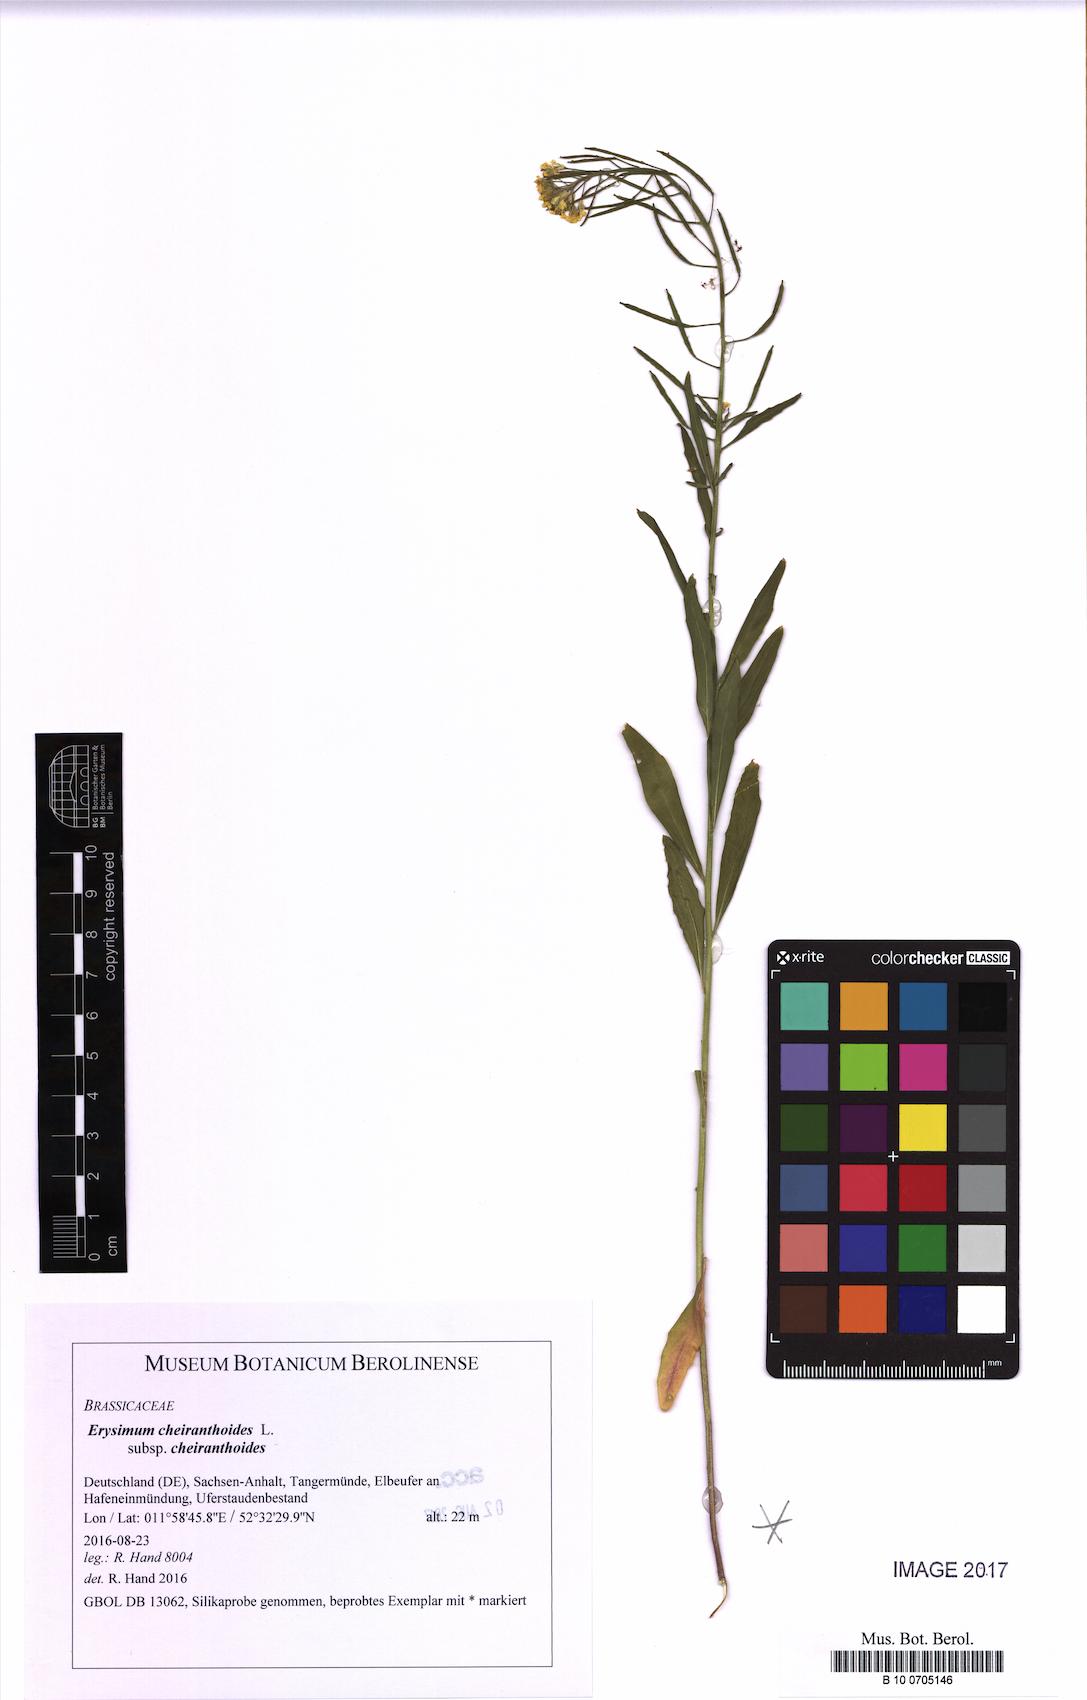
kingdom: Plantae
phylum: Tracheophyta
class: Magnoliopsida
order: Brassicales
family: Brassicaceae
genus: Erysimum
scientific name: Erysimum cheiranthoides
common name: Treacle mustard
